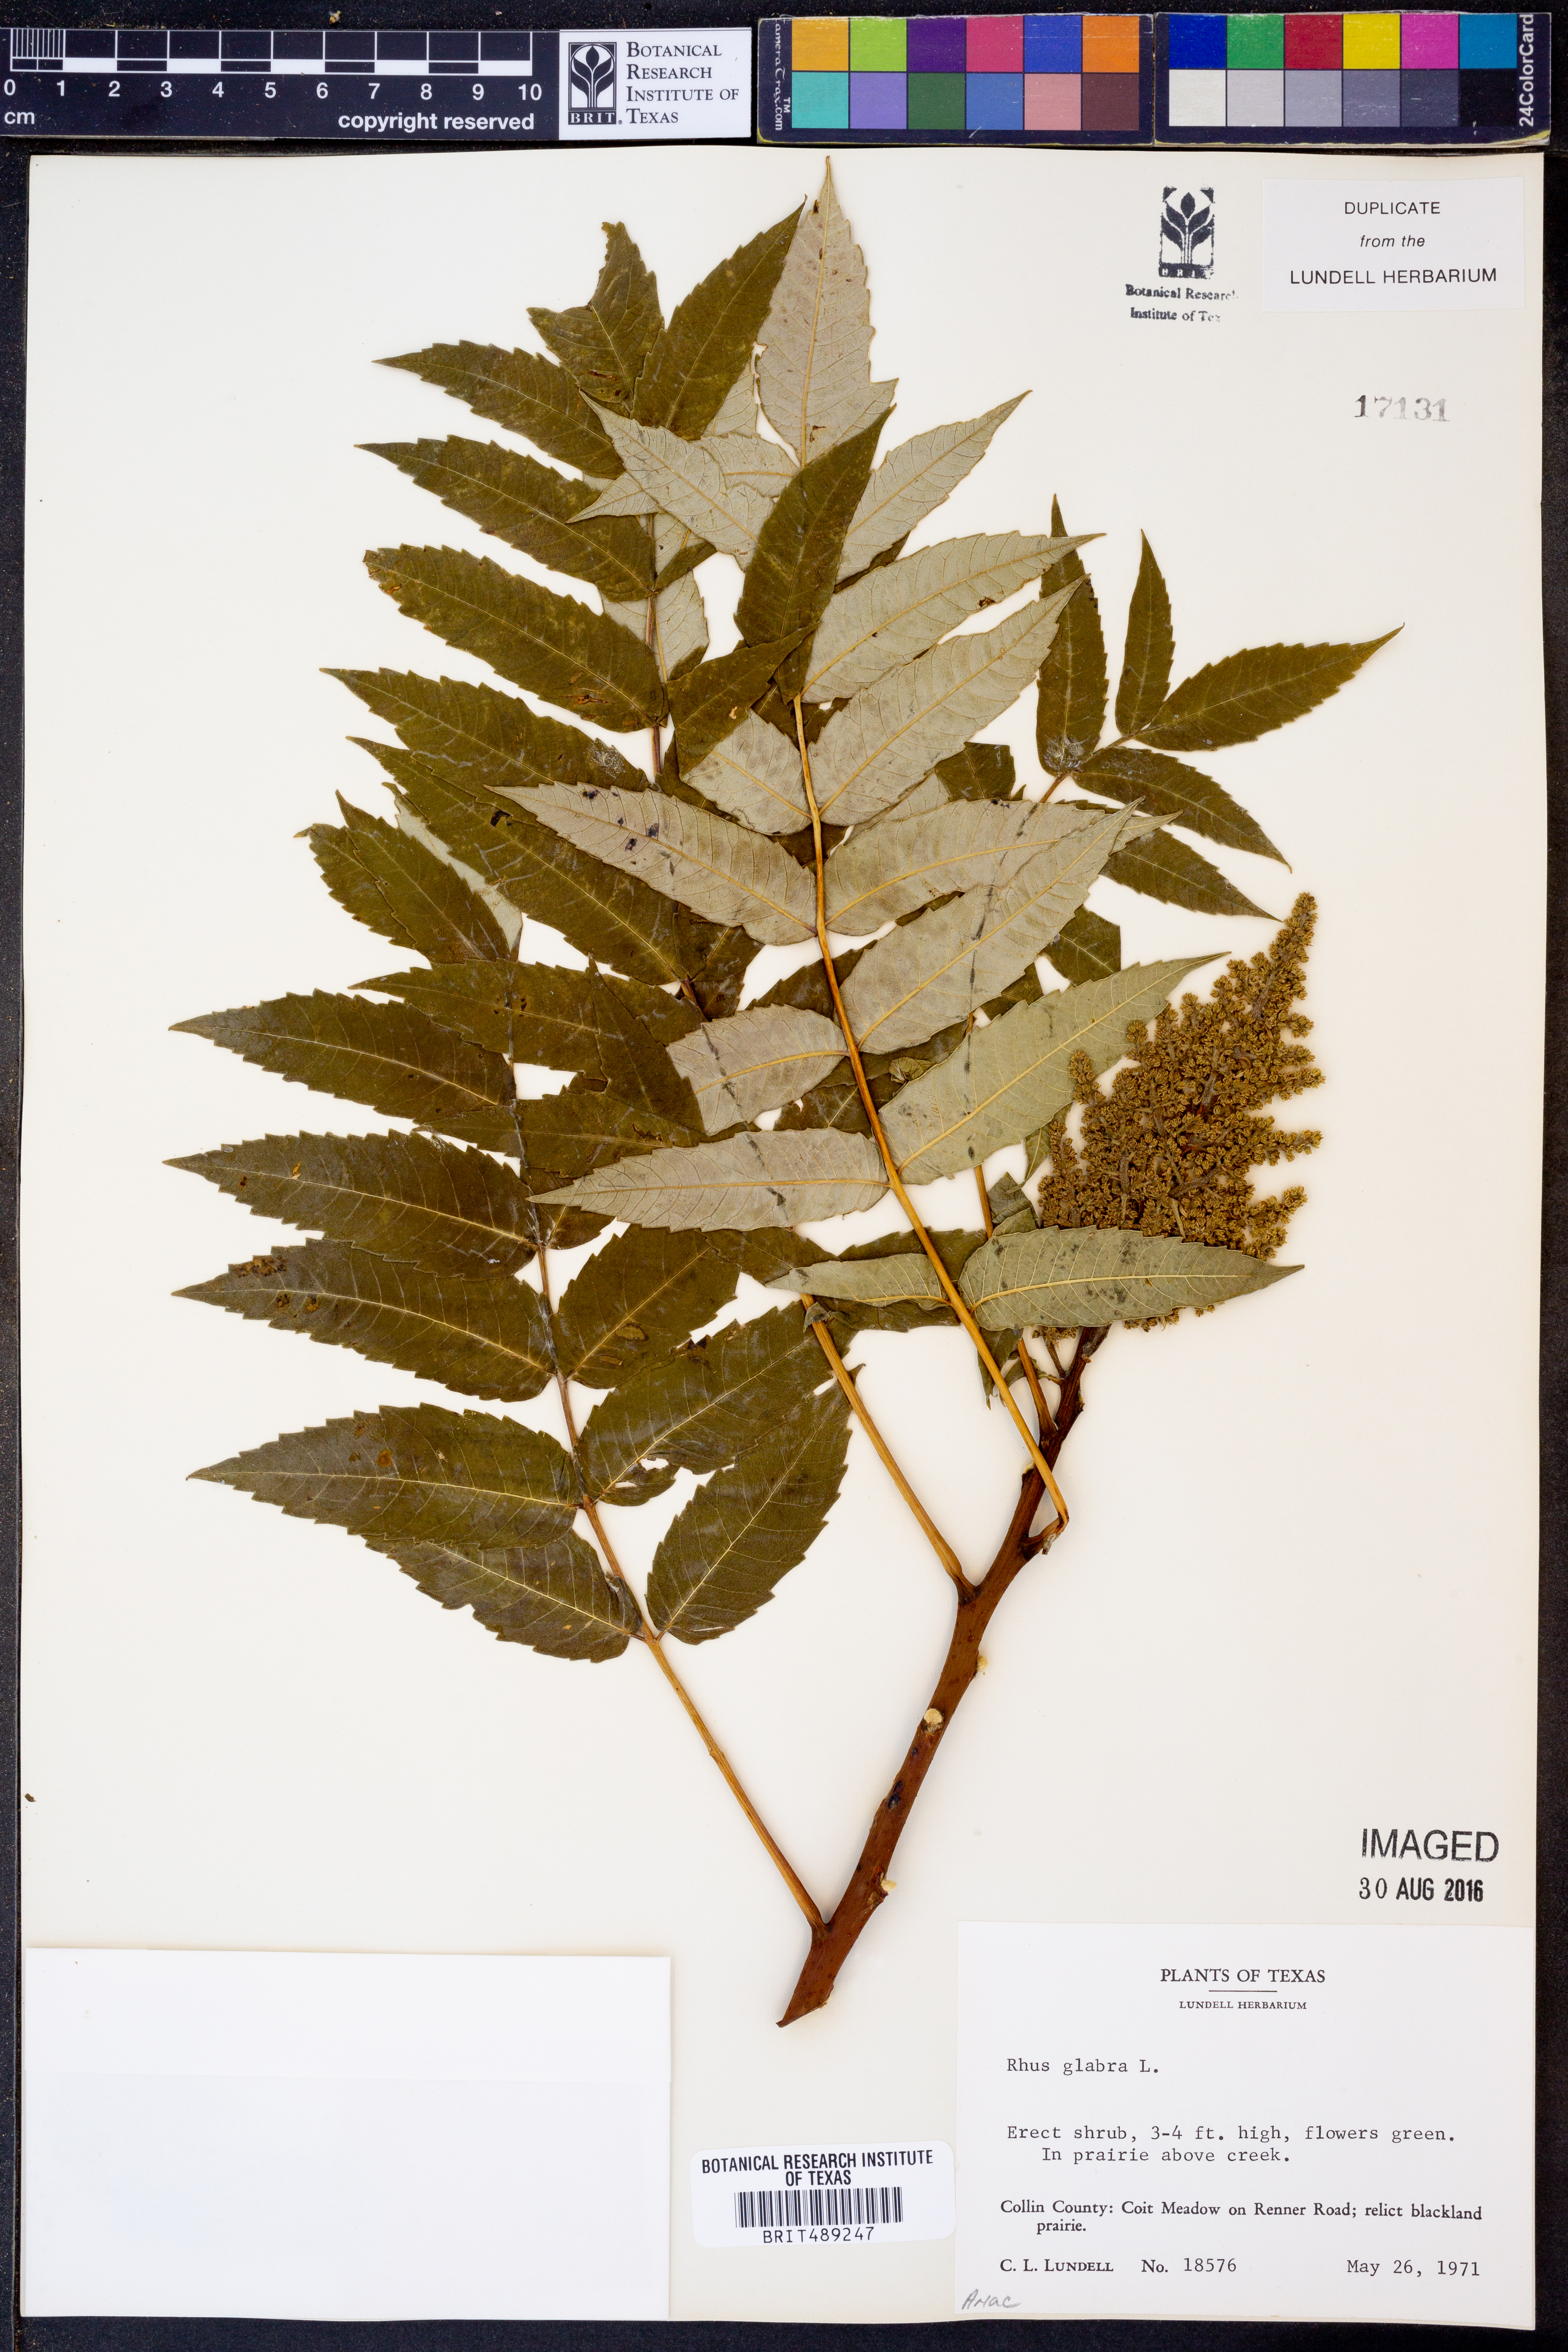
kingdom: Plantae
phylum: Tracheophyta
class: Magnoliopsida
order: Sapindales
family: Anacardiaceae
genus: Rhus
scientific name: Rhus glabra
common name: Scarlet sumac
